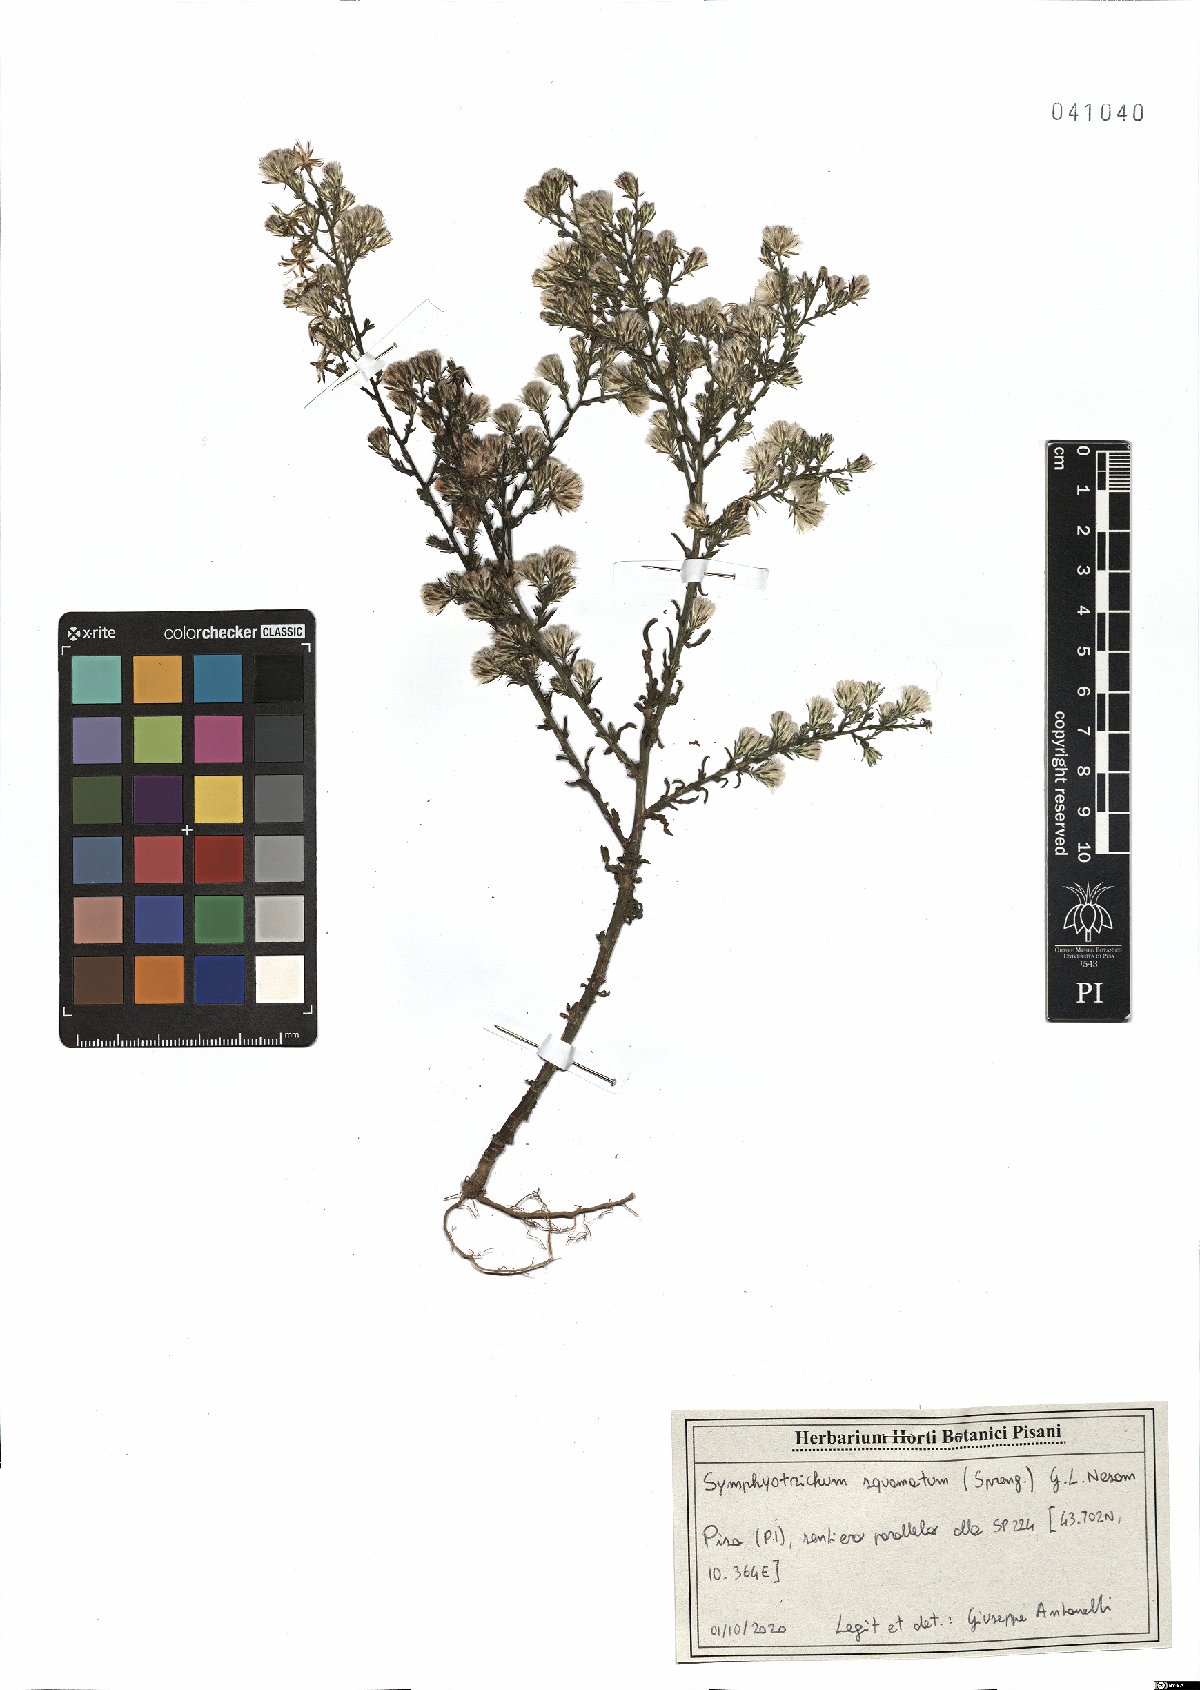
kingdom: Plantae
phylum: Tracheophyta
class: Magnoliopsida
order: Asterales
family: Asteraceae
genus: Symphyotrichum
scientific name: Symphyotrichum squamatum
